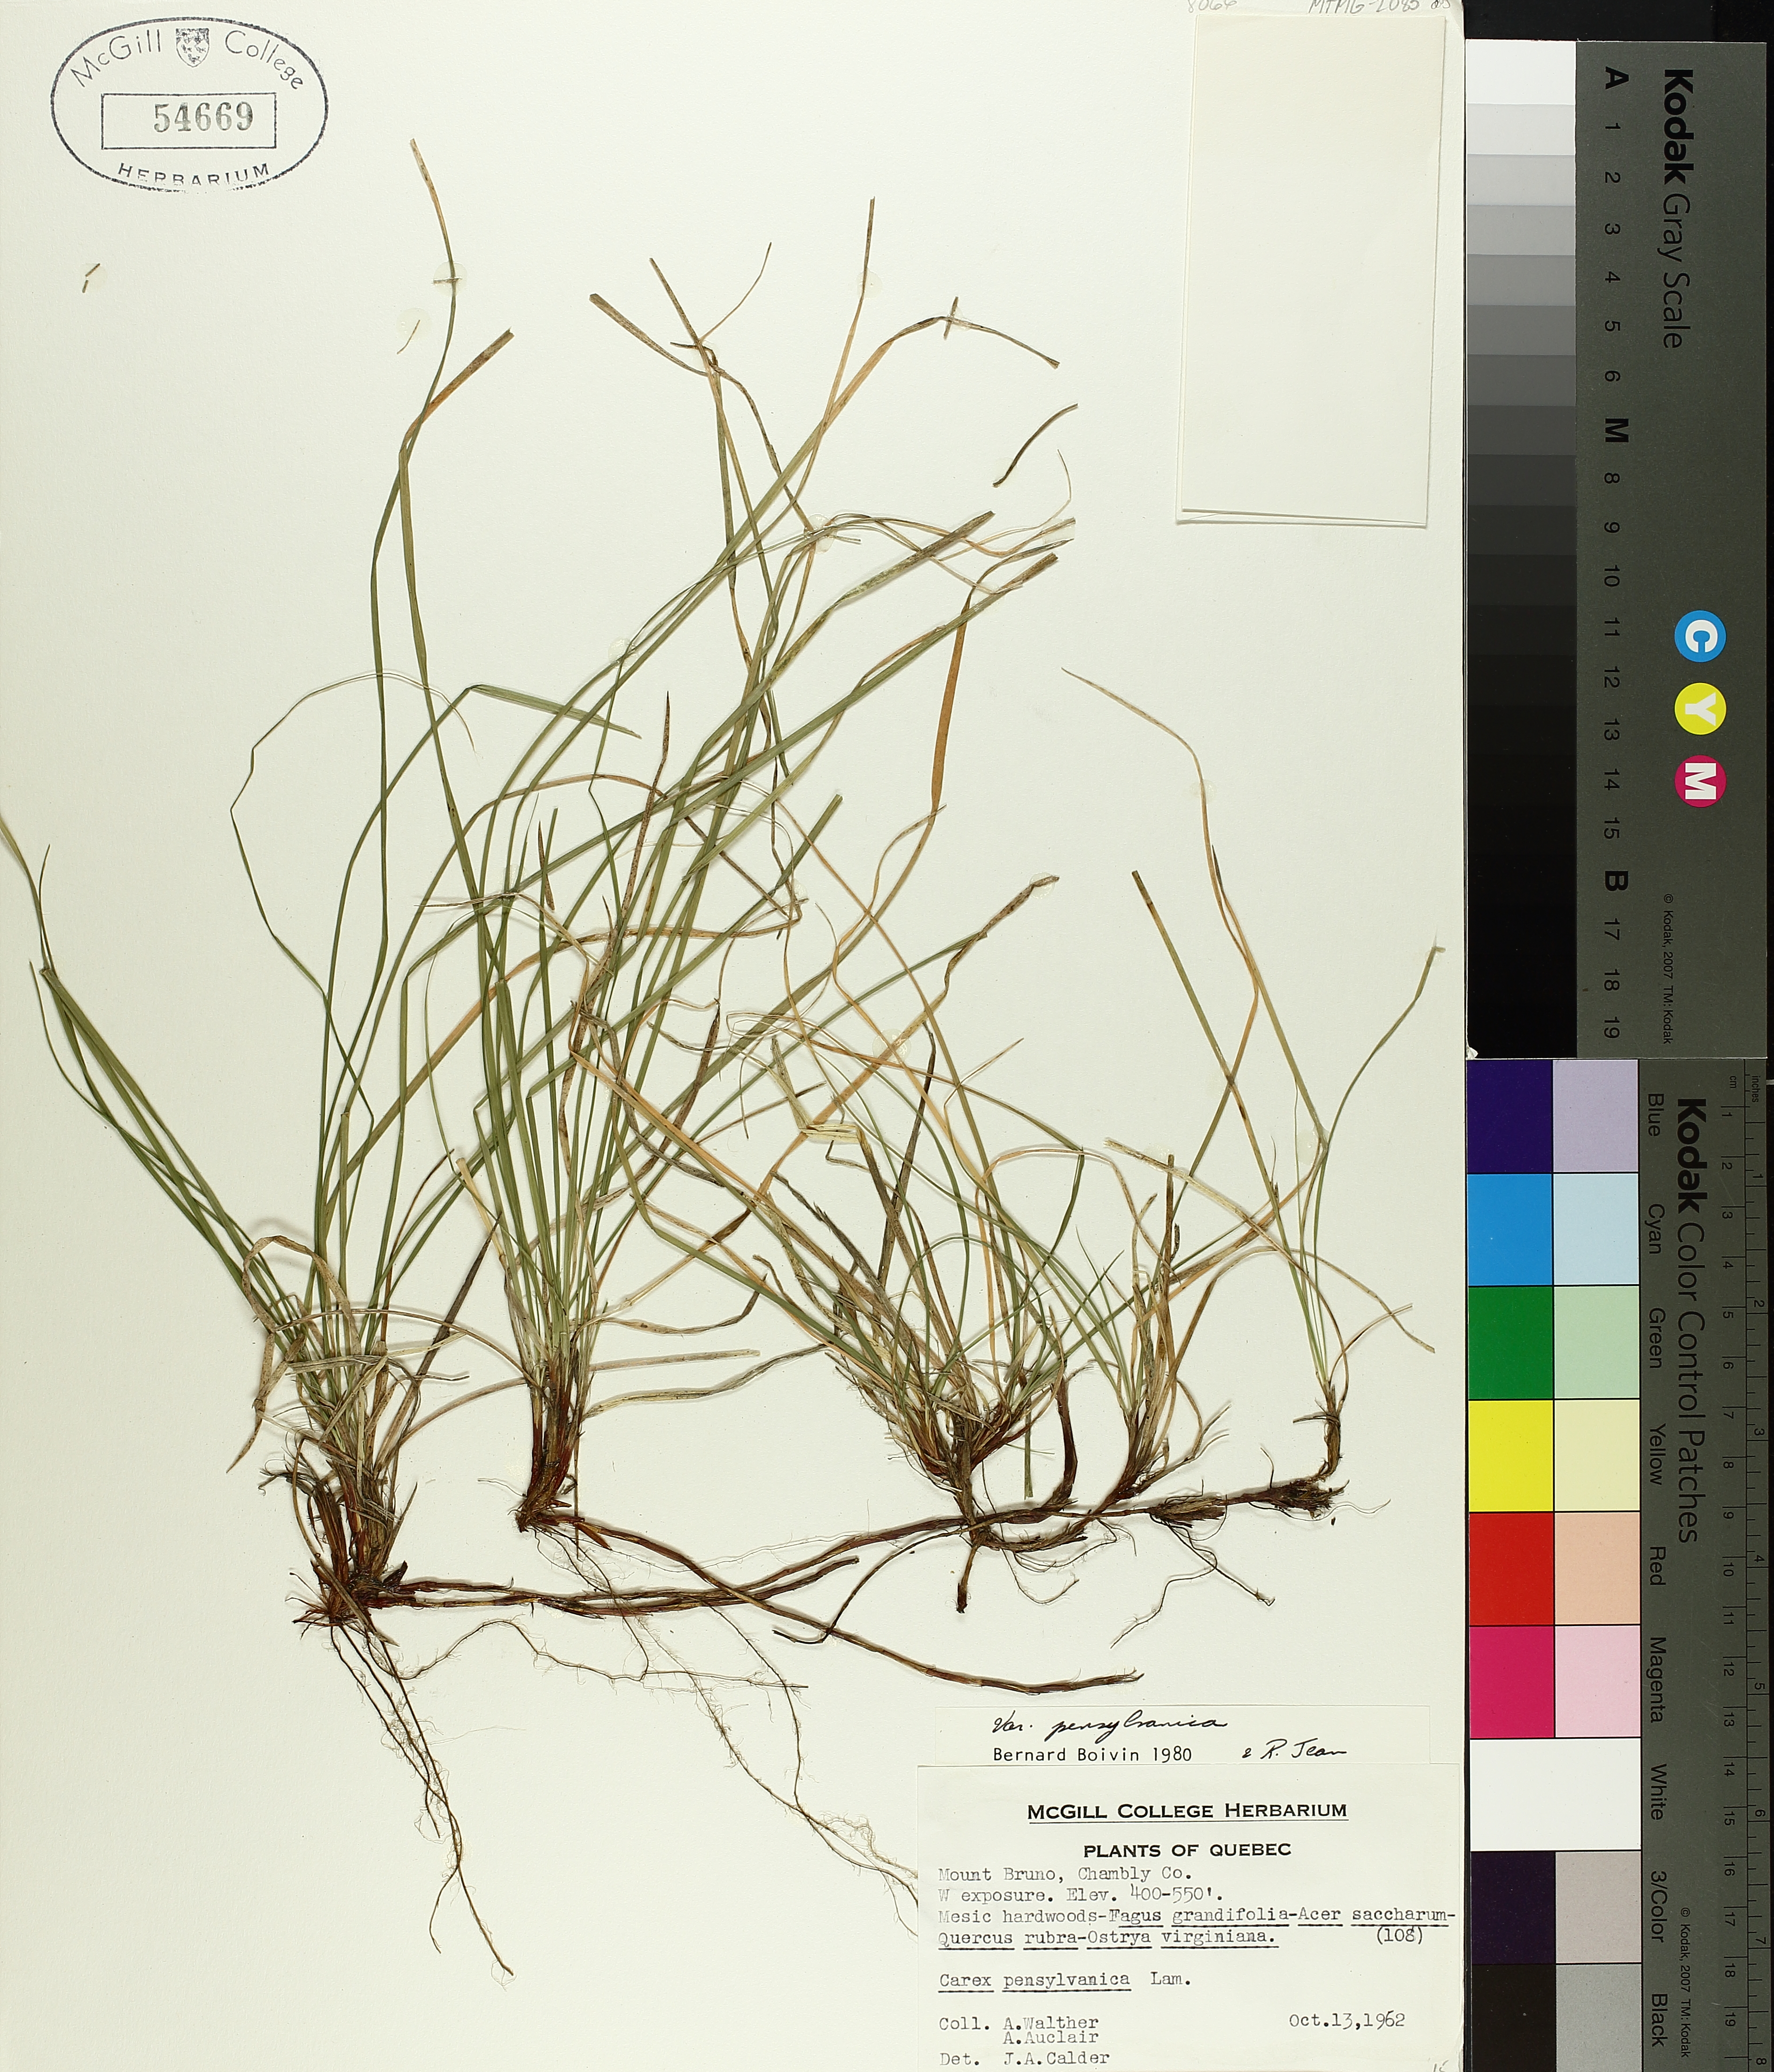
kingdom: Plantae
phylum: Tracheophyta
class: Liliopsida
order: Poales
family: Cyperaceae
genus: Carex
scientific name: Carex pensylvanica
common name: Common oak sedge
